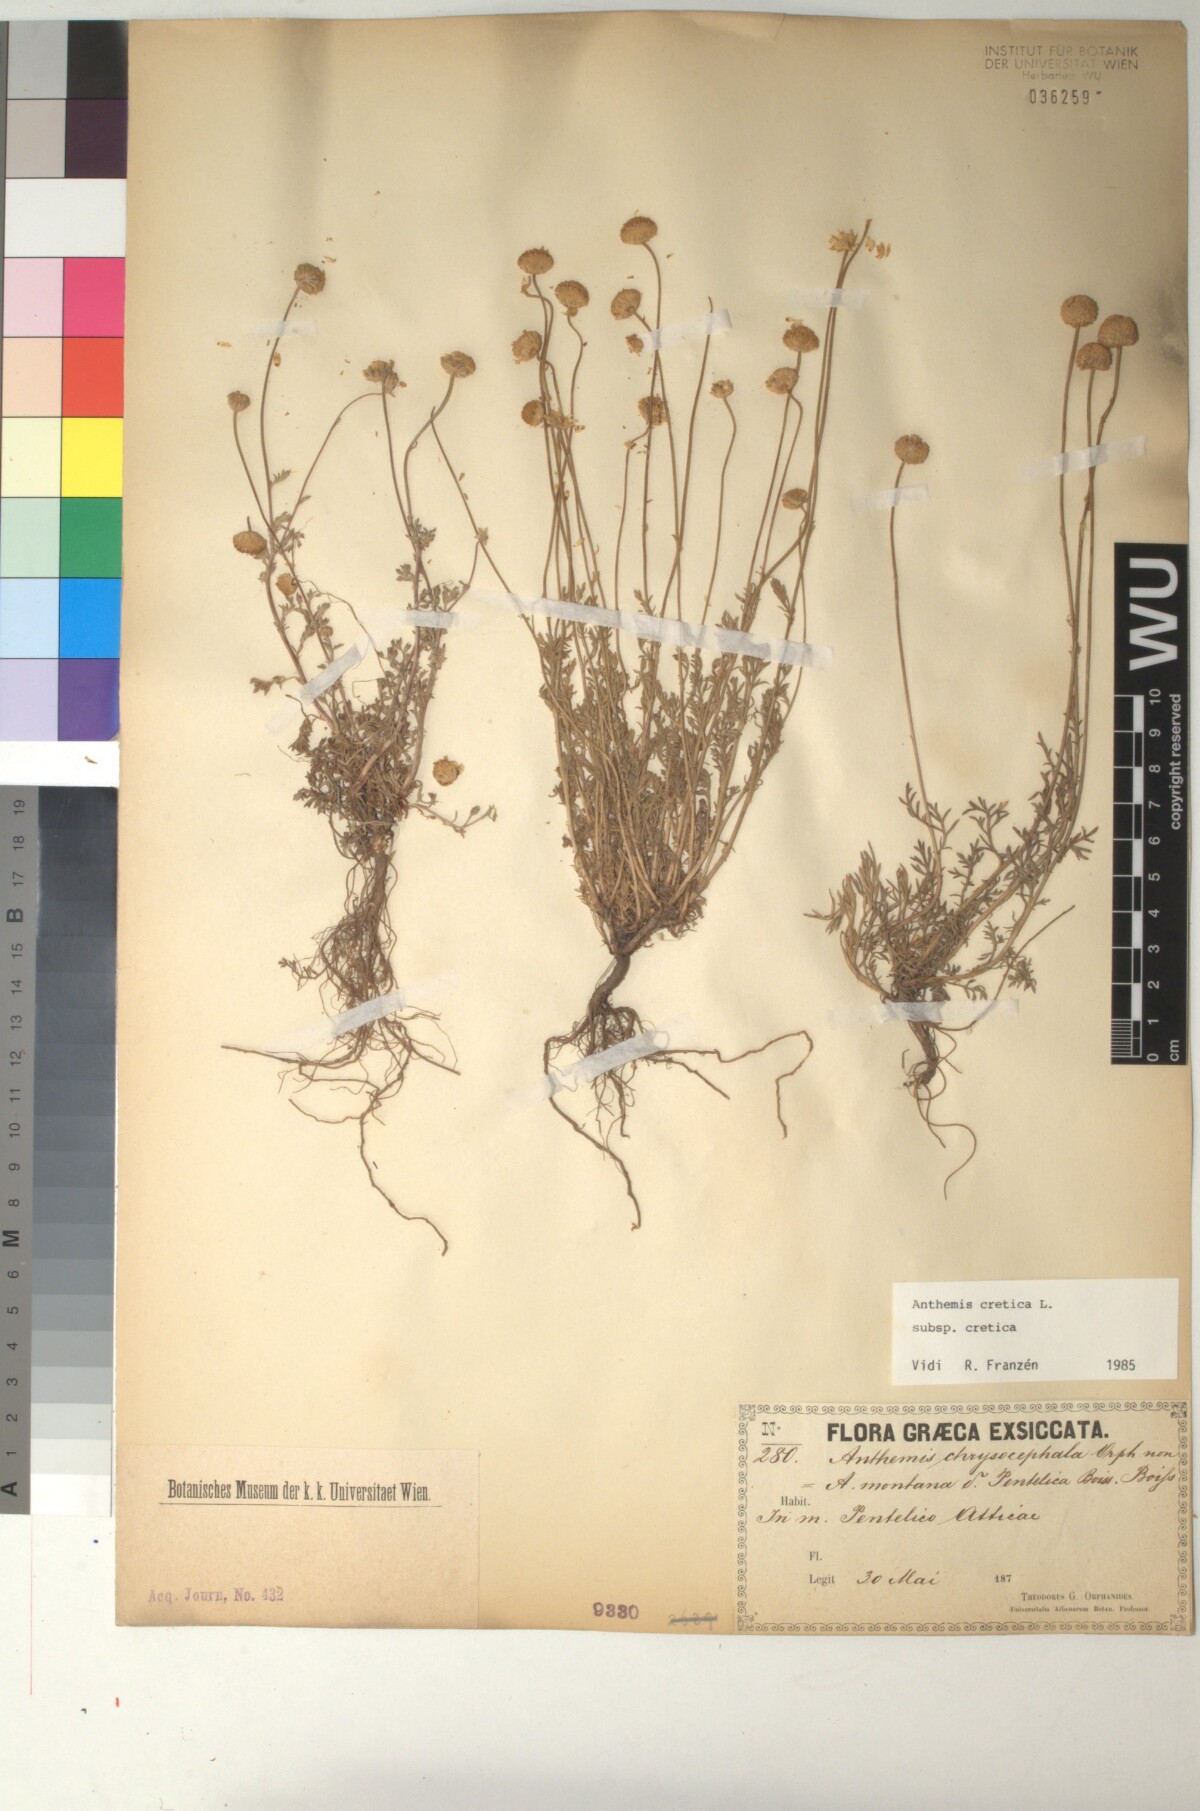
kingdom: Plantae
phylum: Tracheophyta
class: Magnoliopsida
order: Asterales
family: Asteraceae
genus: Anthemis
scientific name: Anthemis cretica
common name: Mountain dog-daisy
